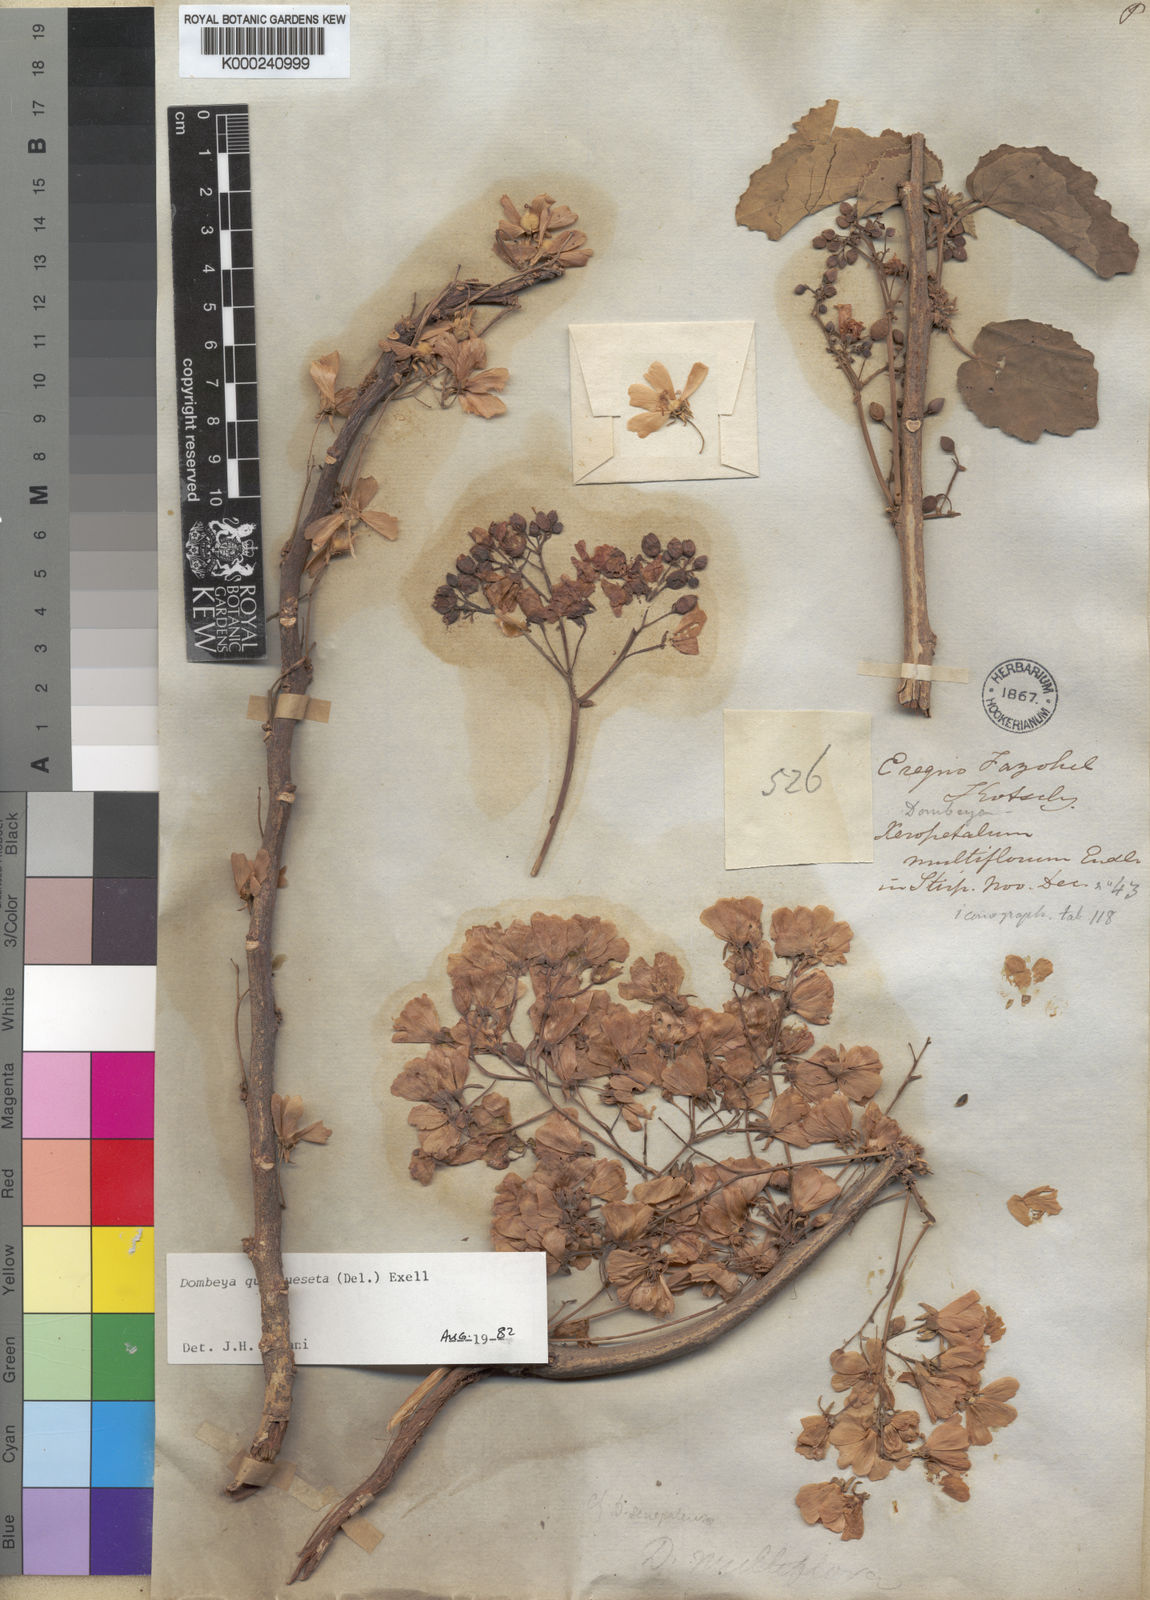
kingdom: Plantae
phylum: Tracheophyta
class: Magnoliopsida
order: Malvales
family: Malvaceae
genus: Dombeya
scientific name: Dombeya quinqueseta
